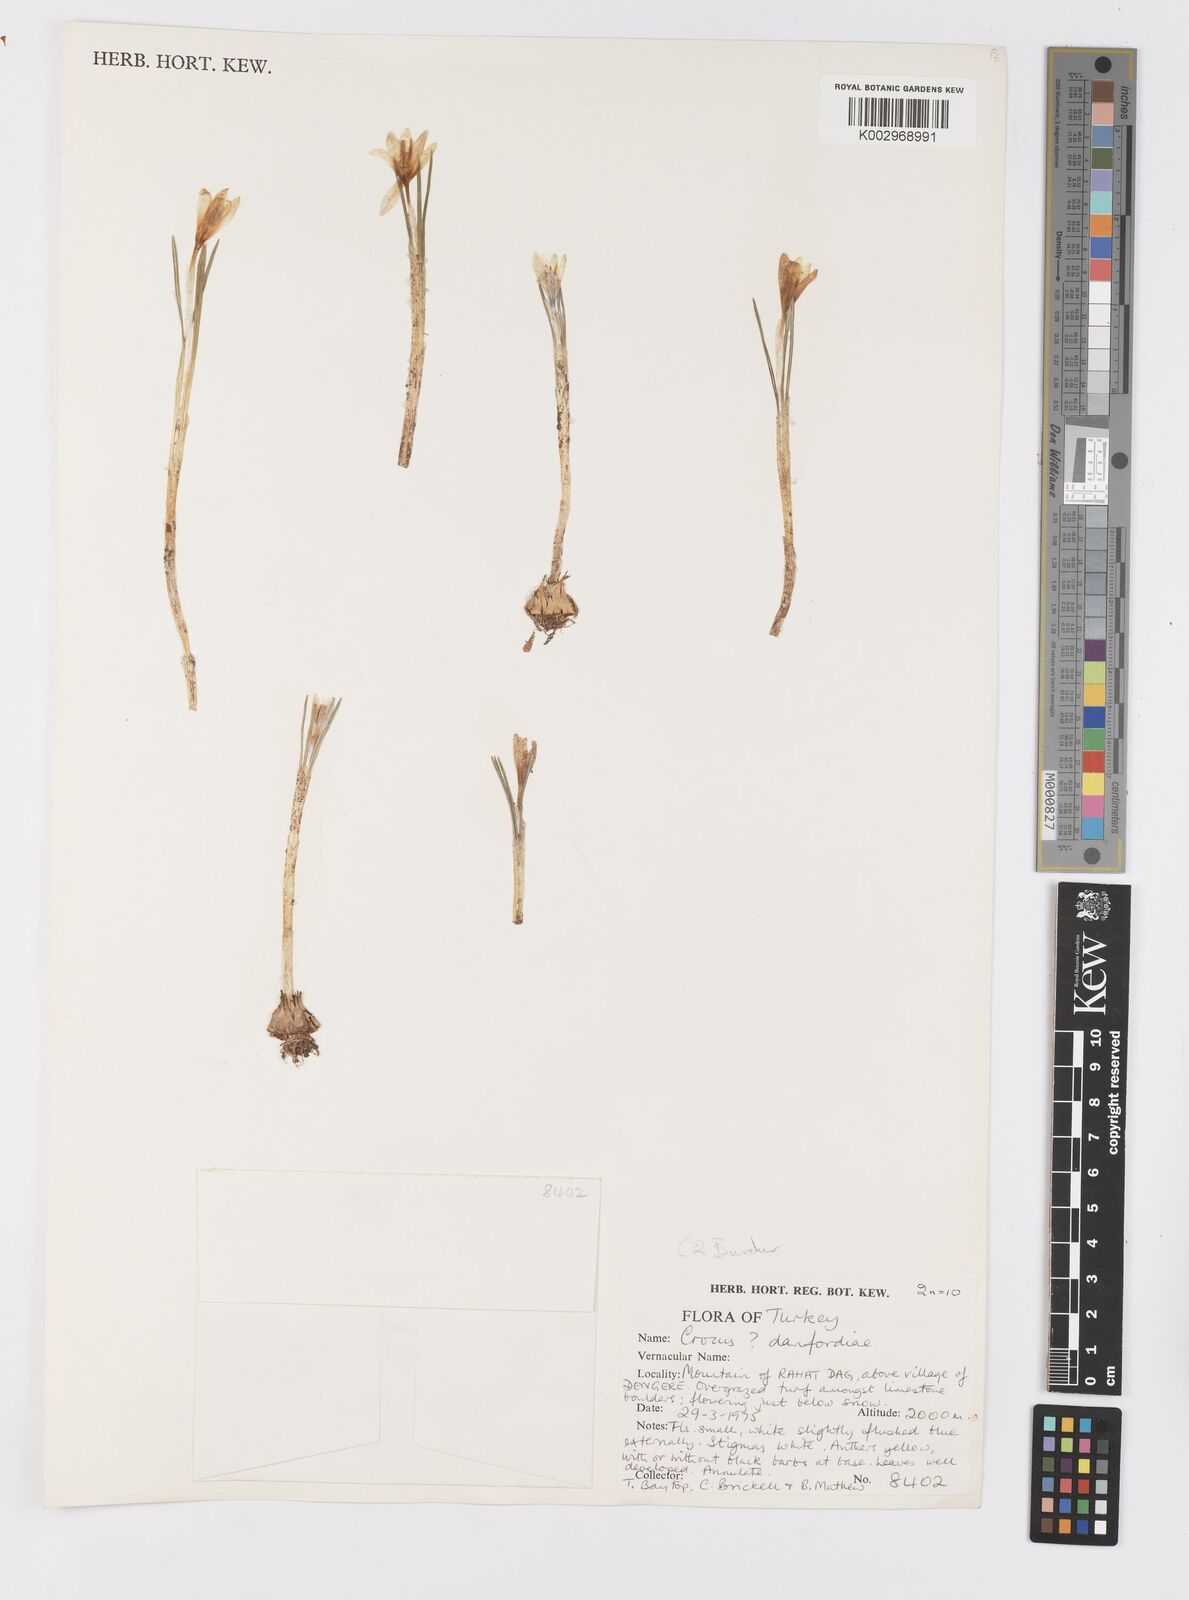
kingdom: Plantae
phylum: Tracheophyta
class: Liliopsida
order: Asparagales
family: Iridaceae
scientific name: Iridaceae
